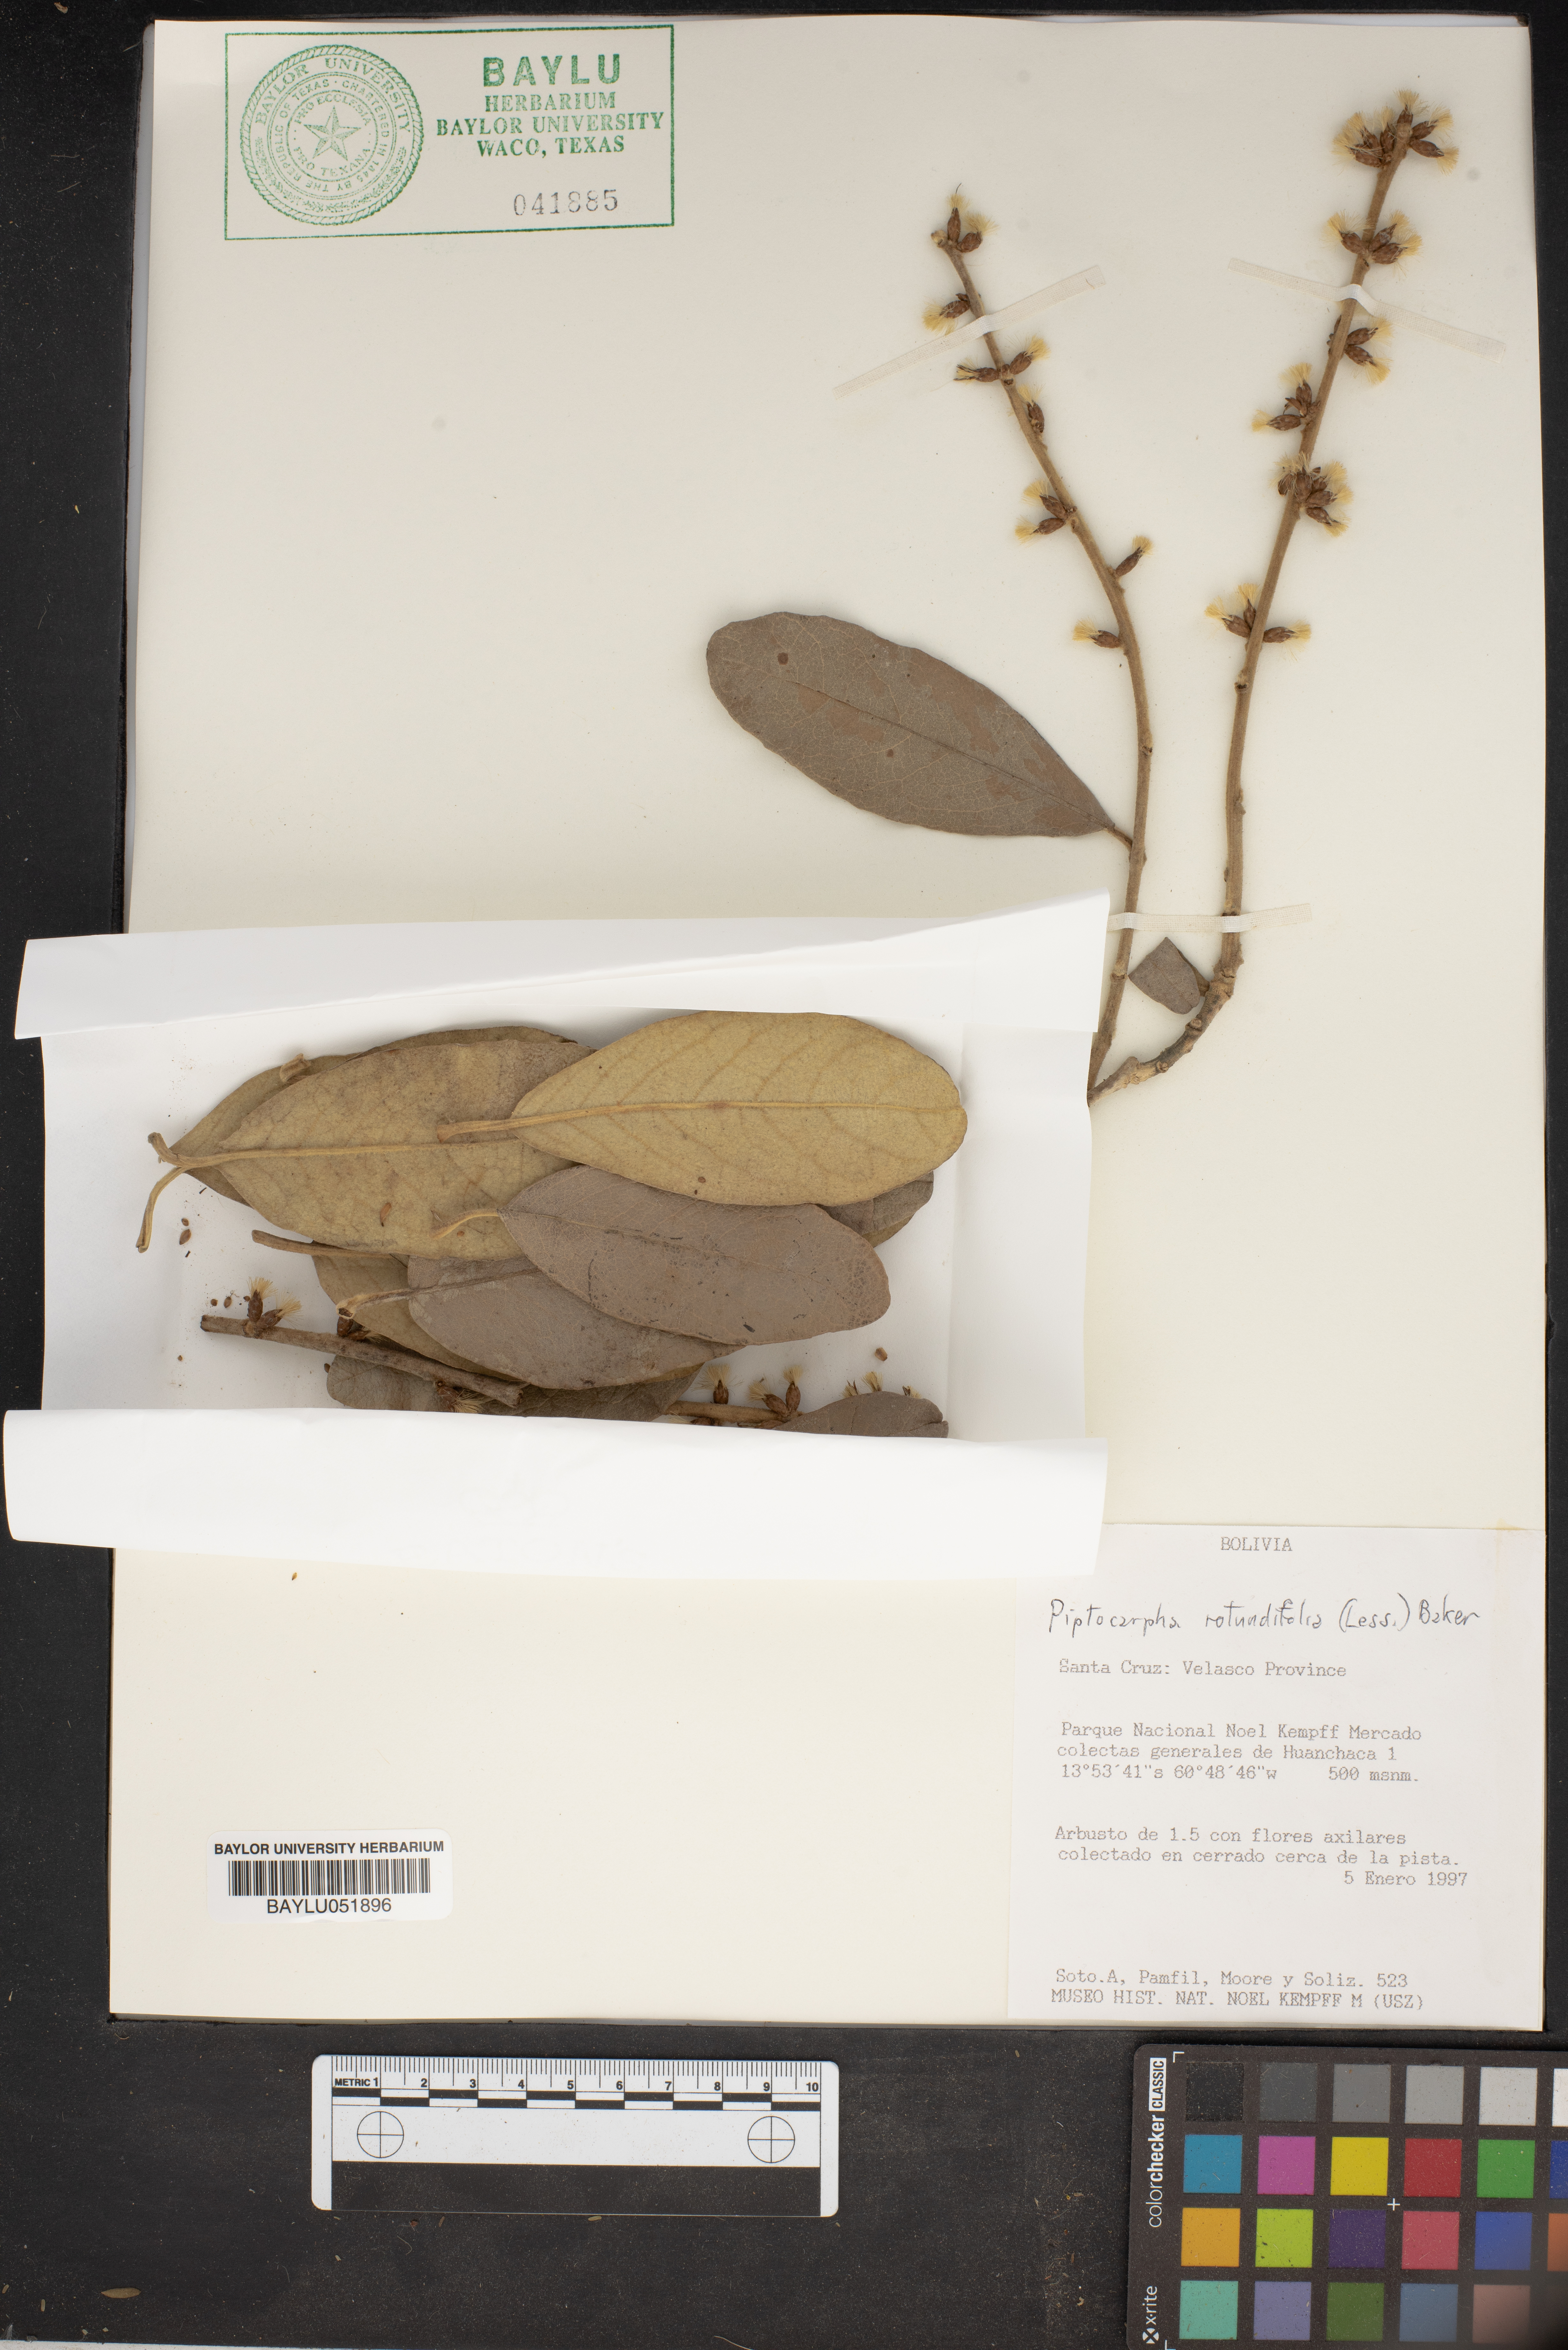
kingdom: Plantae
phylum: Tracheophyta
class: Magnoliopsida
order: Asterales
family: Asteraceae
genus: Piptocarpha
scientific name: Piptocarpha rotundifolia
